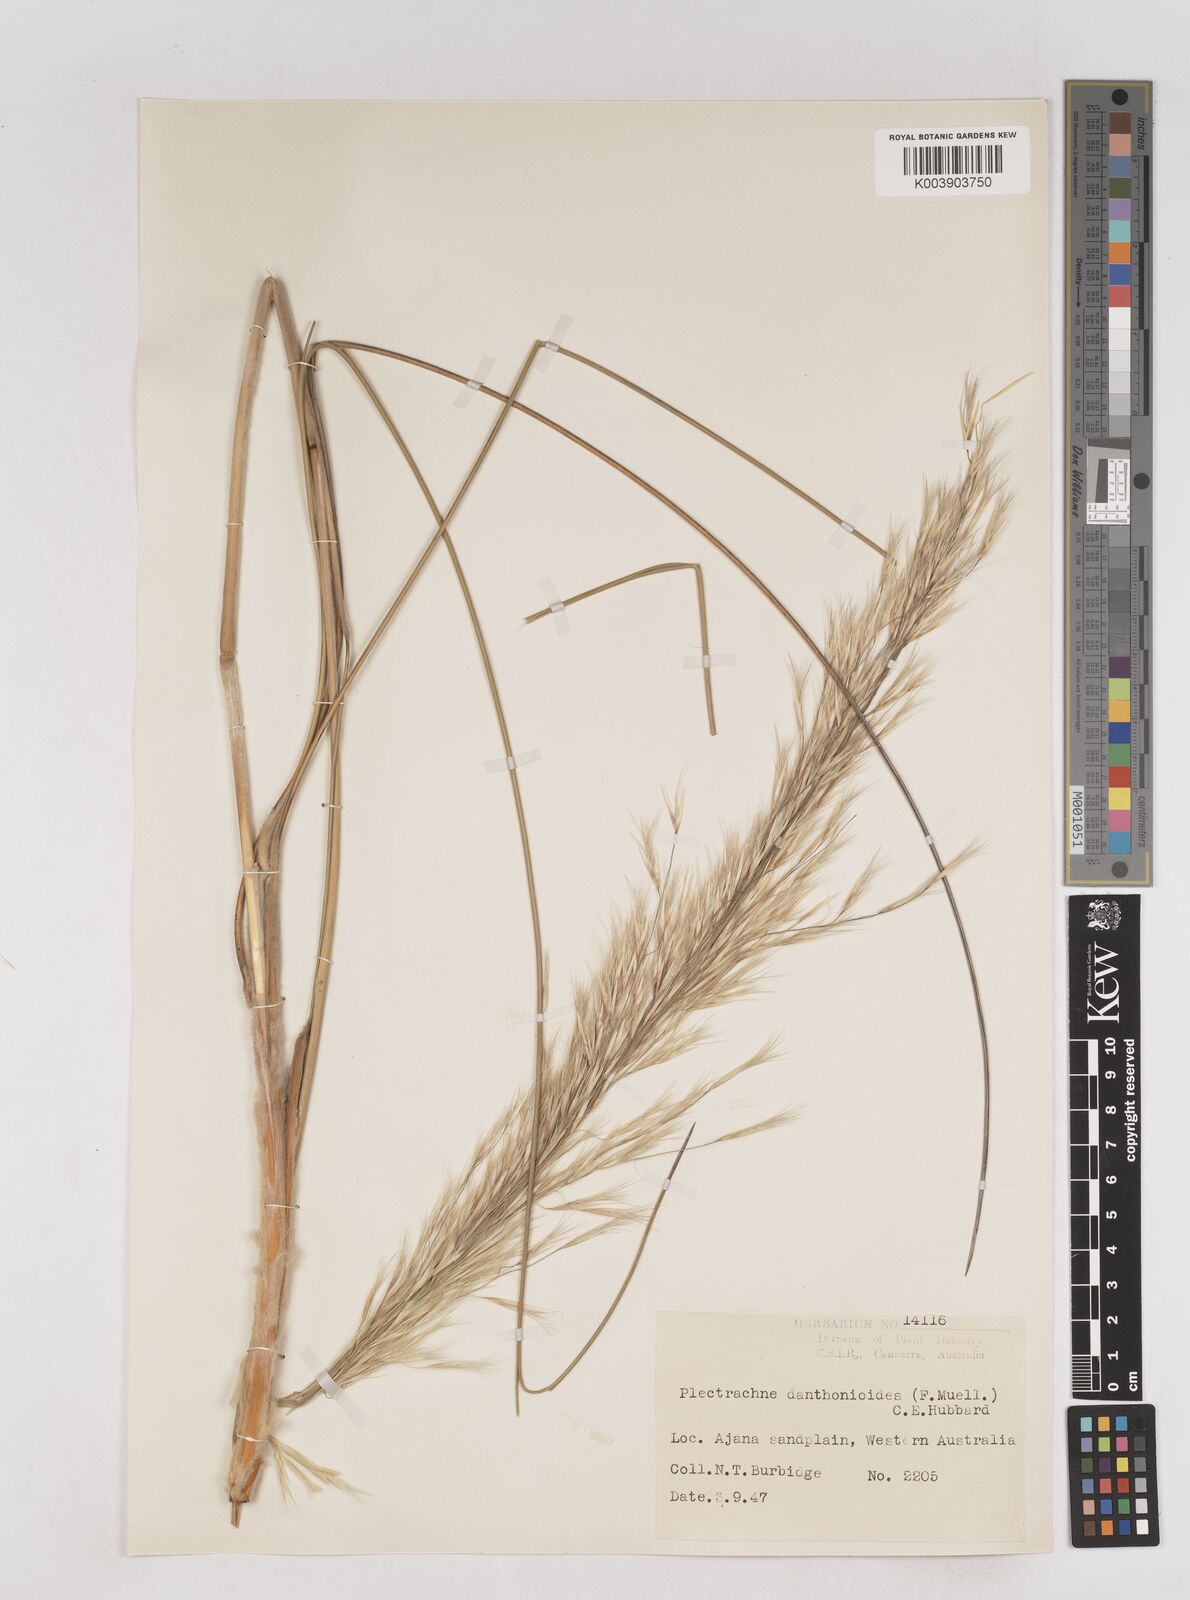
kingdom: Plantae
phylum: Tracheophyta
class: Liliopsida
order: Poales
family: Poaceae
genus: Triodia
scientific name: Triodia danthonioides
